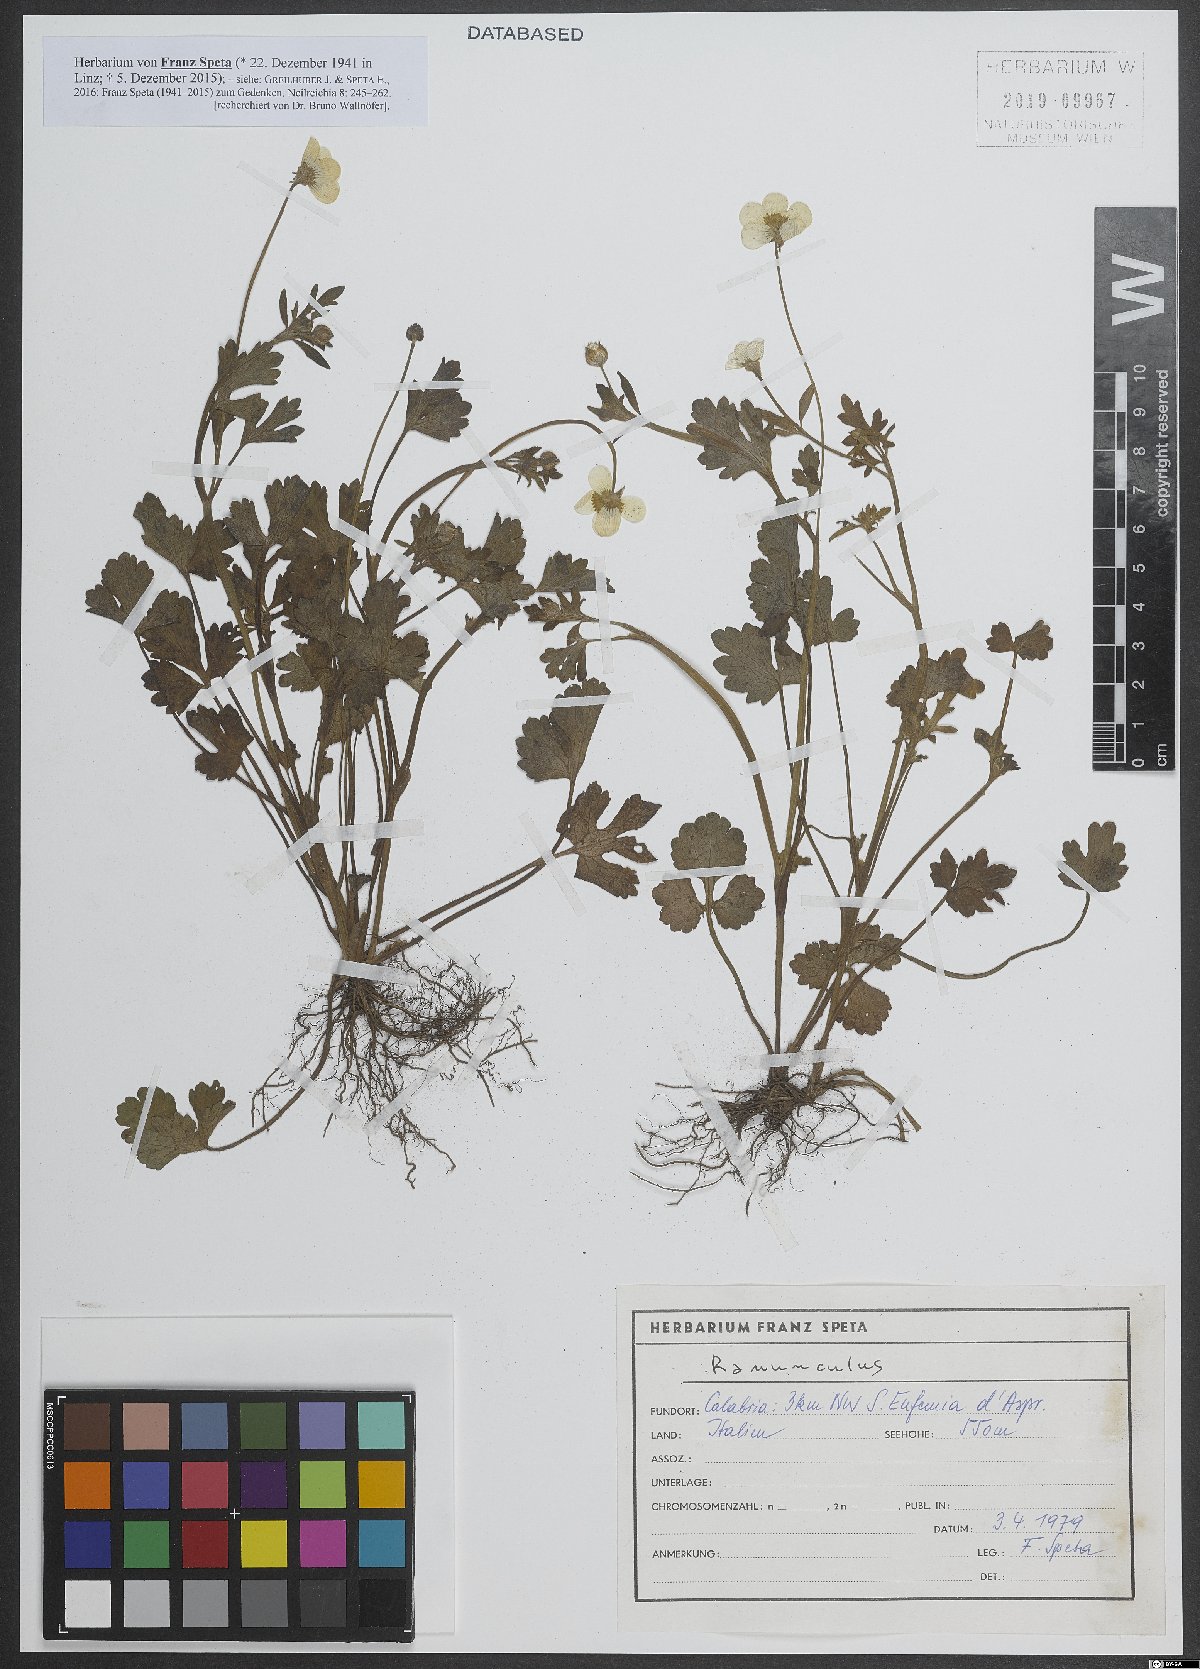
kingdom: Plantae
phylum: Tracheophyta
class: Magnoliopsida
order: Ranunculales
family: Ranunculaceae
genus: Ranunculus
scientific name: Ranunculus
